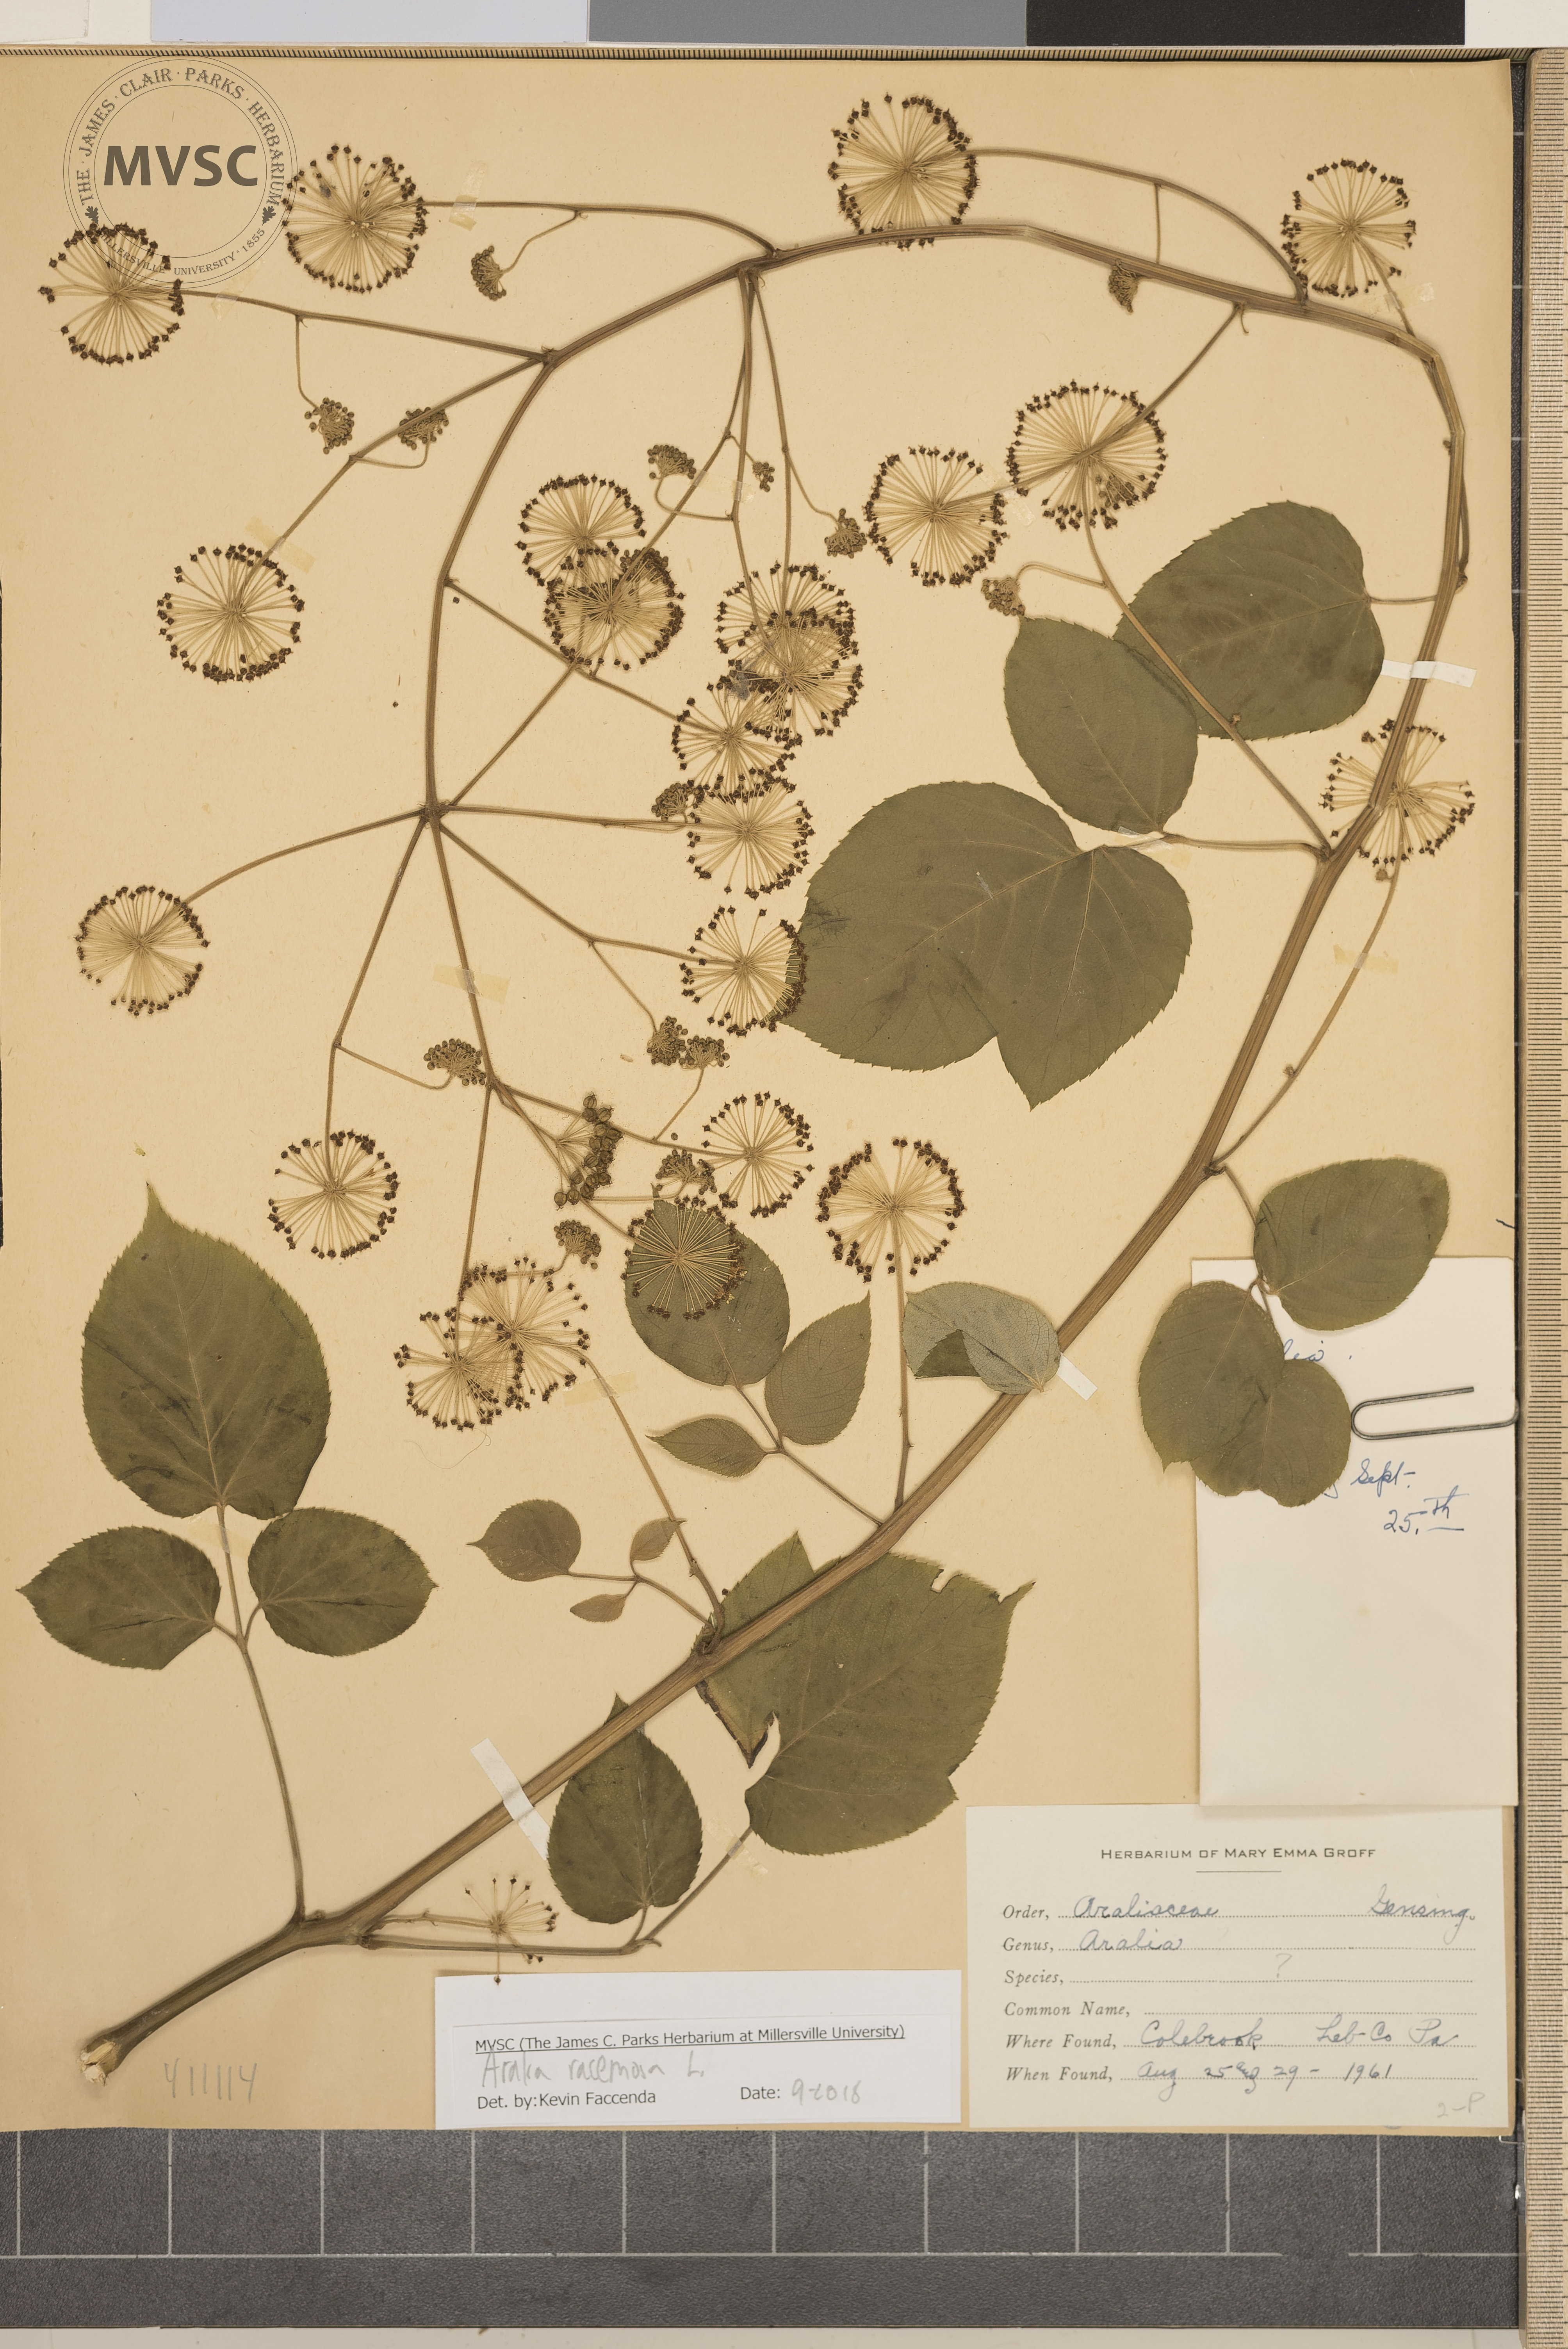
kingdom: Plantae
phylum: Tracheophyta
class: Magnoliopsida
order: Apiales
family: Araliaceae
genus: Aralia
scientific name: Aralia racemosa
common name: American-spikenard
